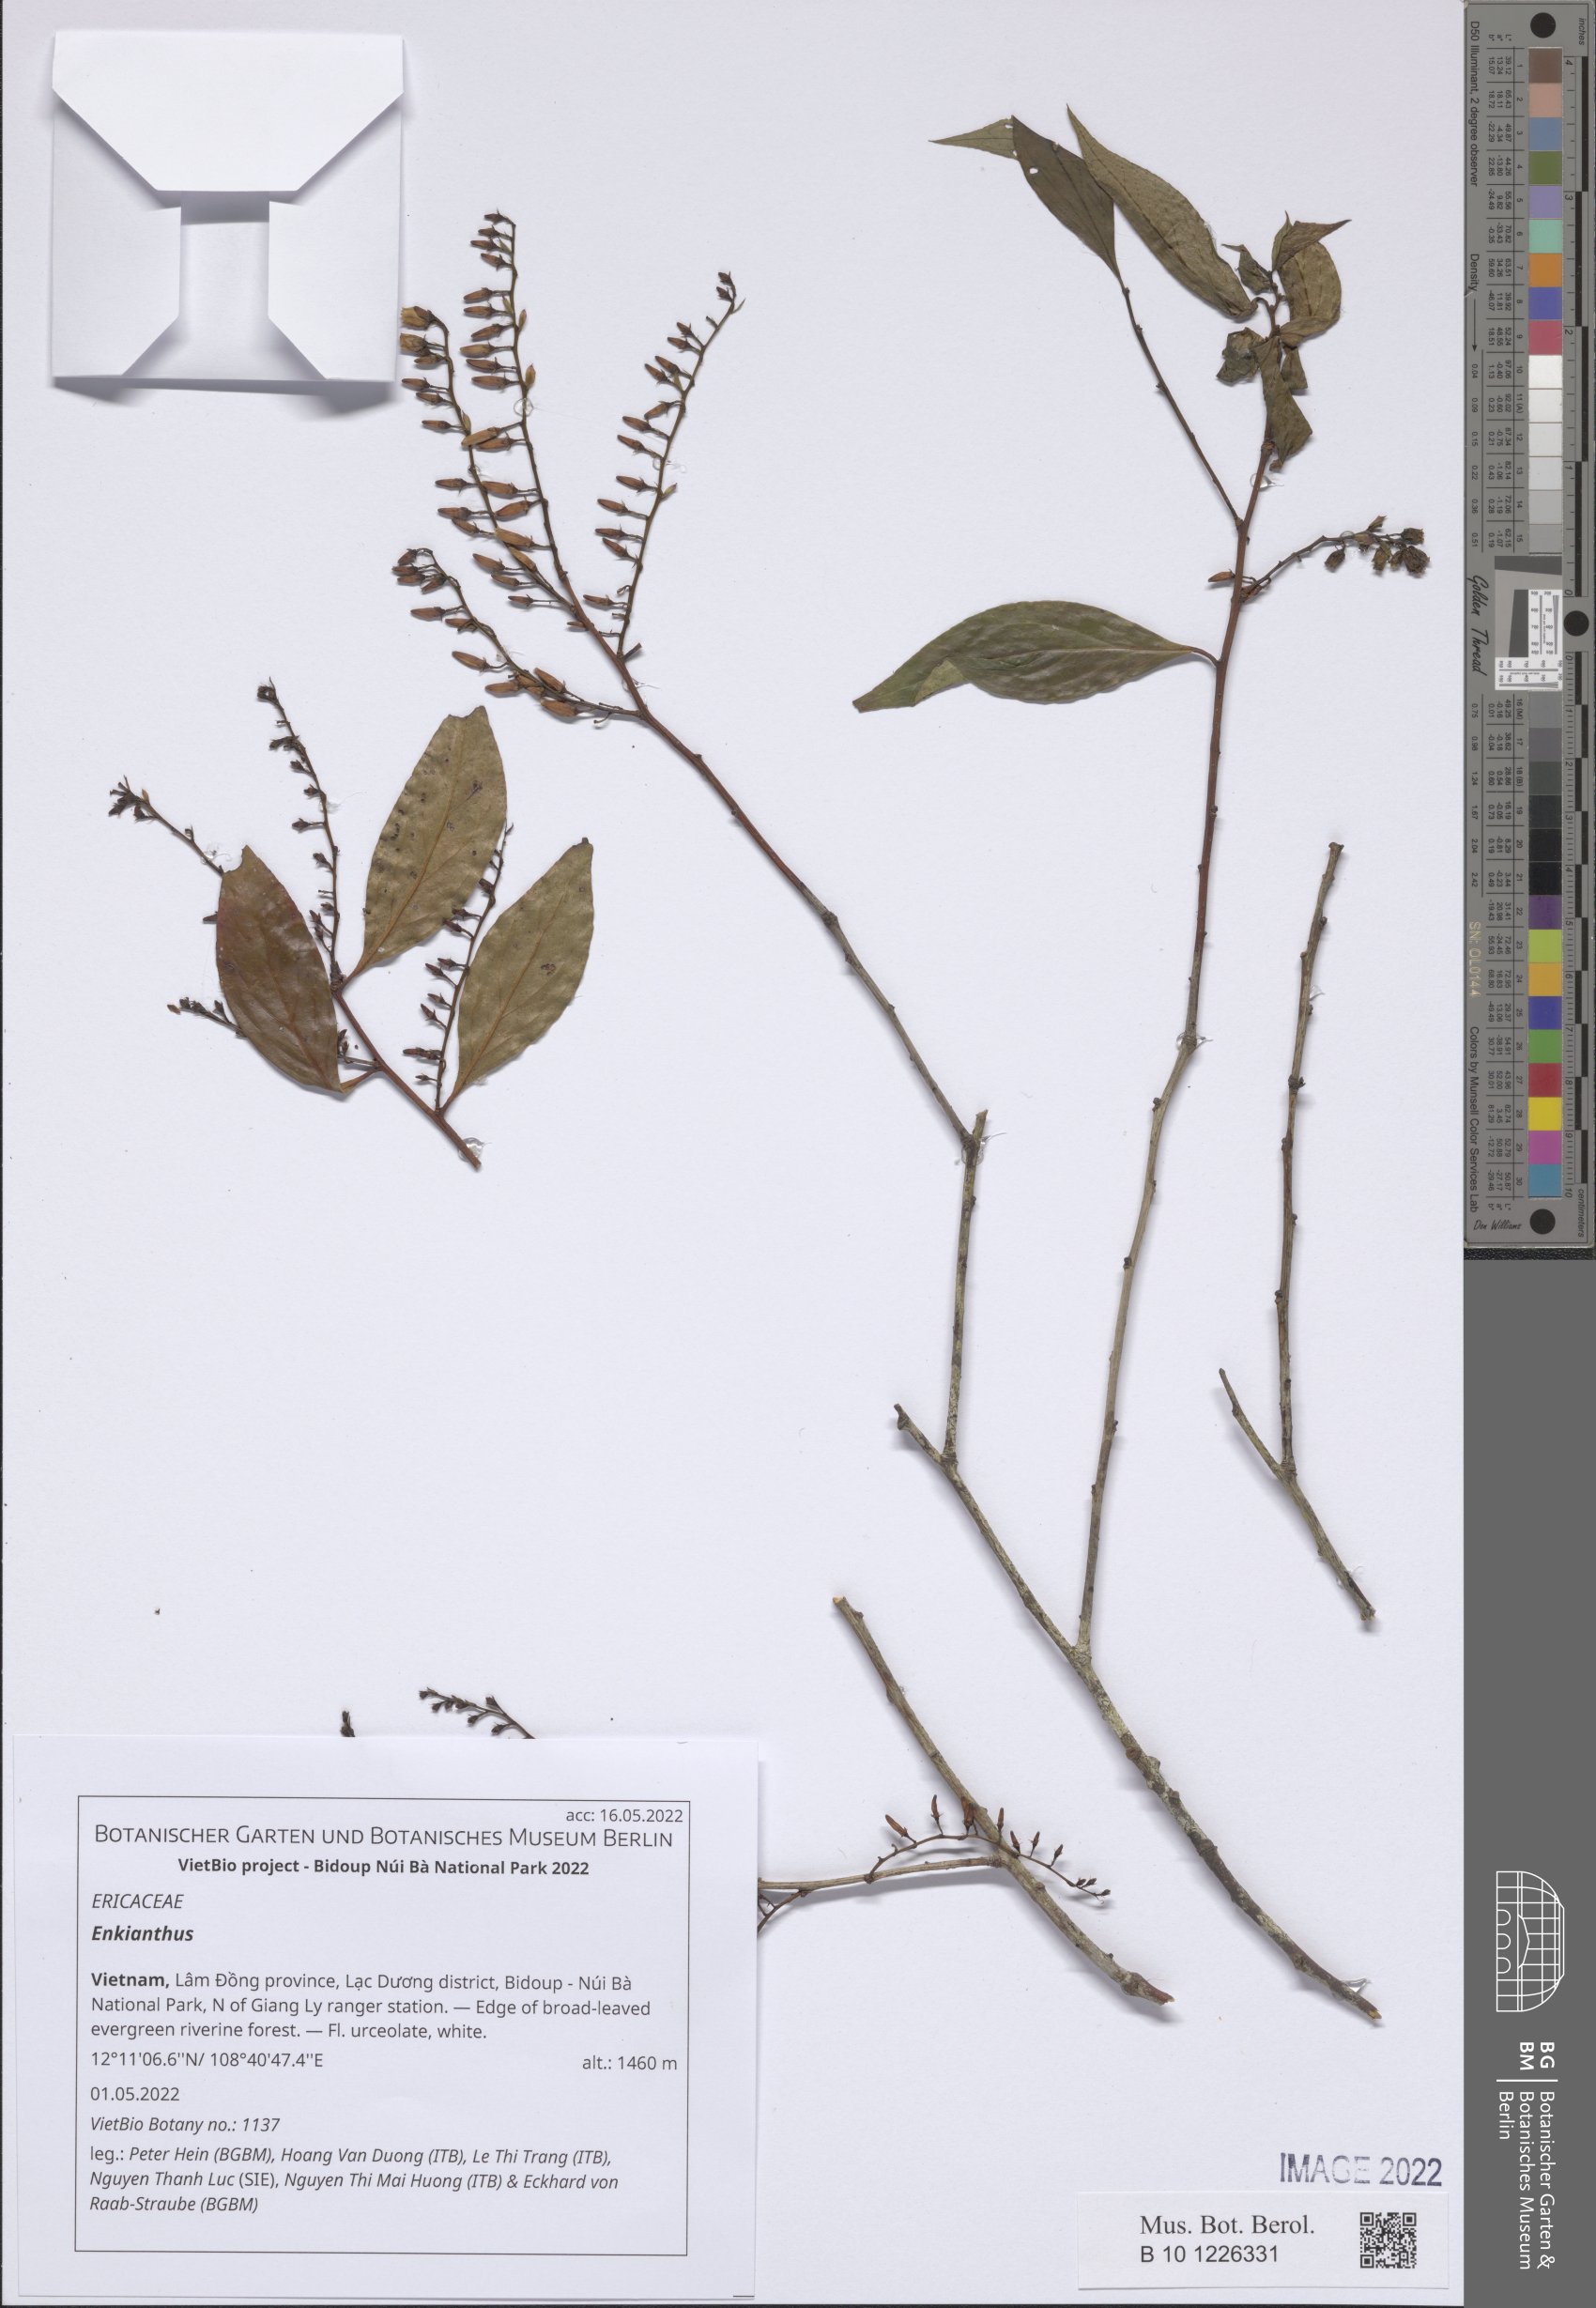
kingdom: Plantae
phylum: Tracheophyta
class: Magnoliopsida
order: Ericales
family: Ericaceae
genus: Enkianthus
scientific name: Enkianthus
